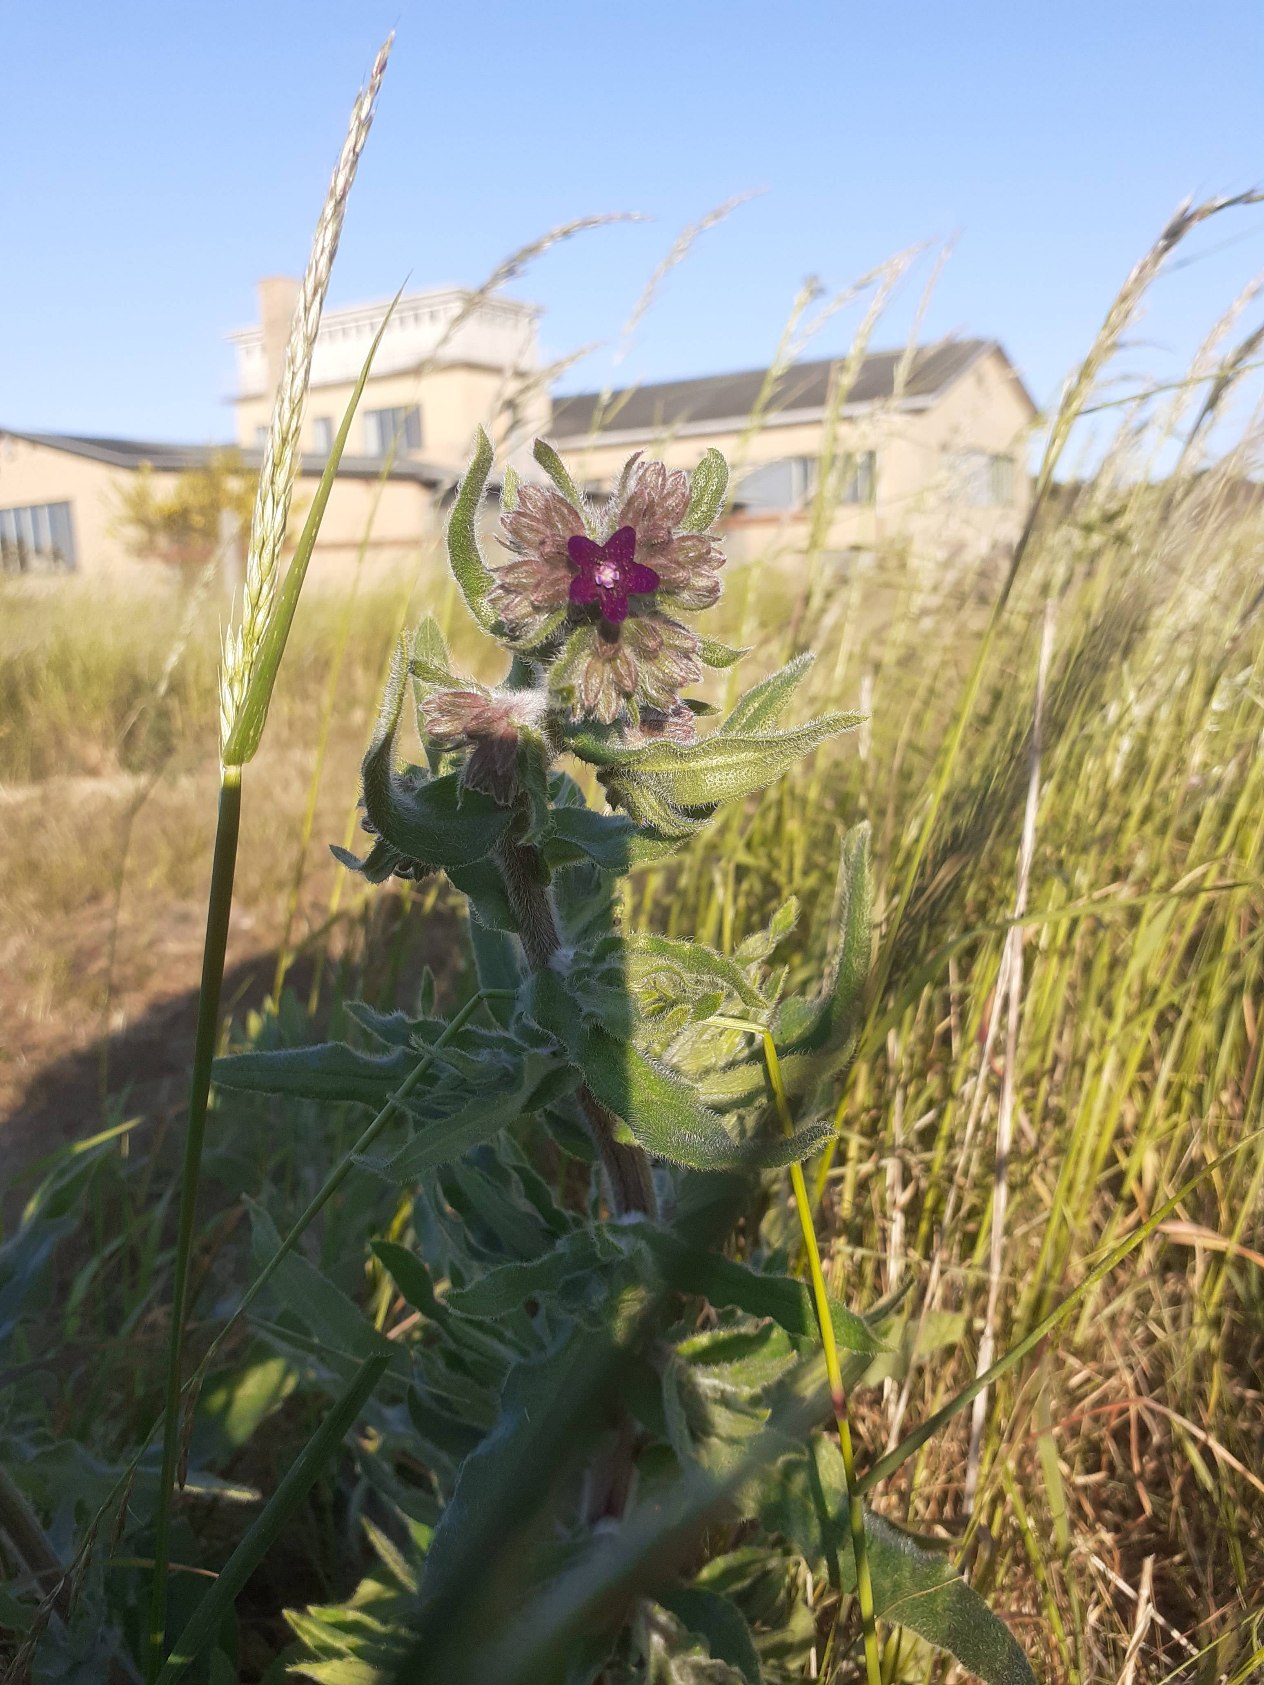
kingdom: Plantae
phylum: Tracheophyta
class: Magnoliopsida
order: Boraginales
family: Boraginaceae
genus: Anchusa
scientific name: Anchusa officinalis
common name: Læge-oksetunge
